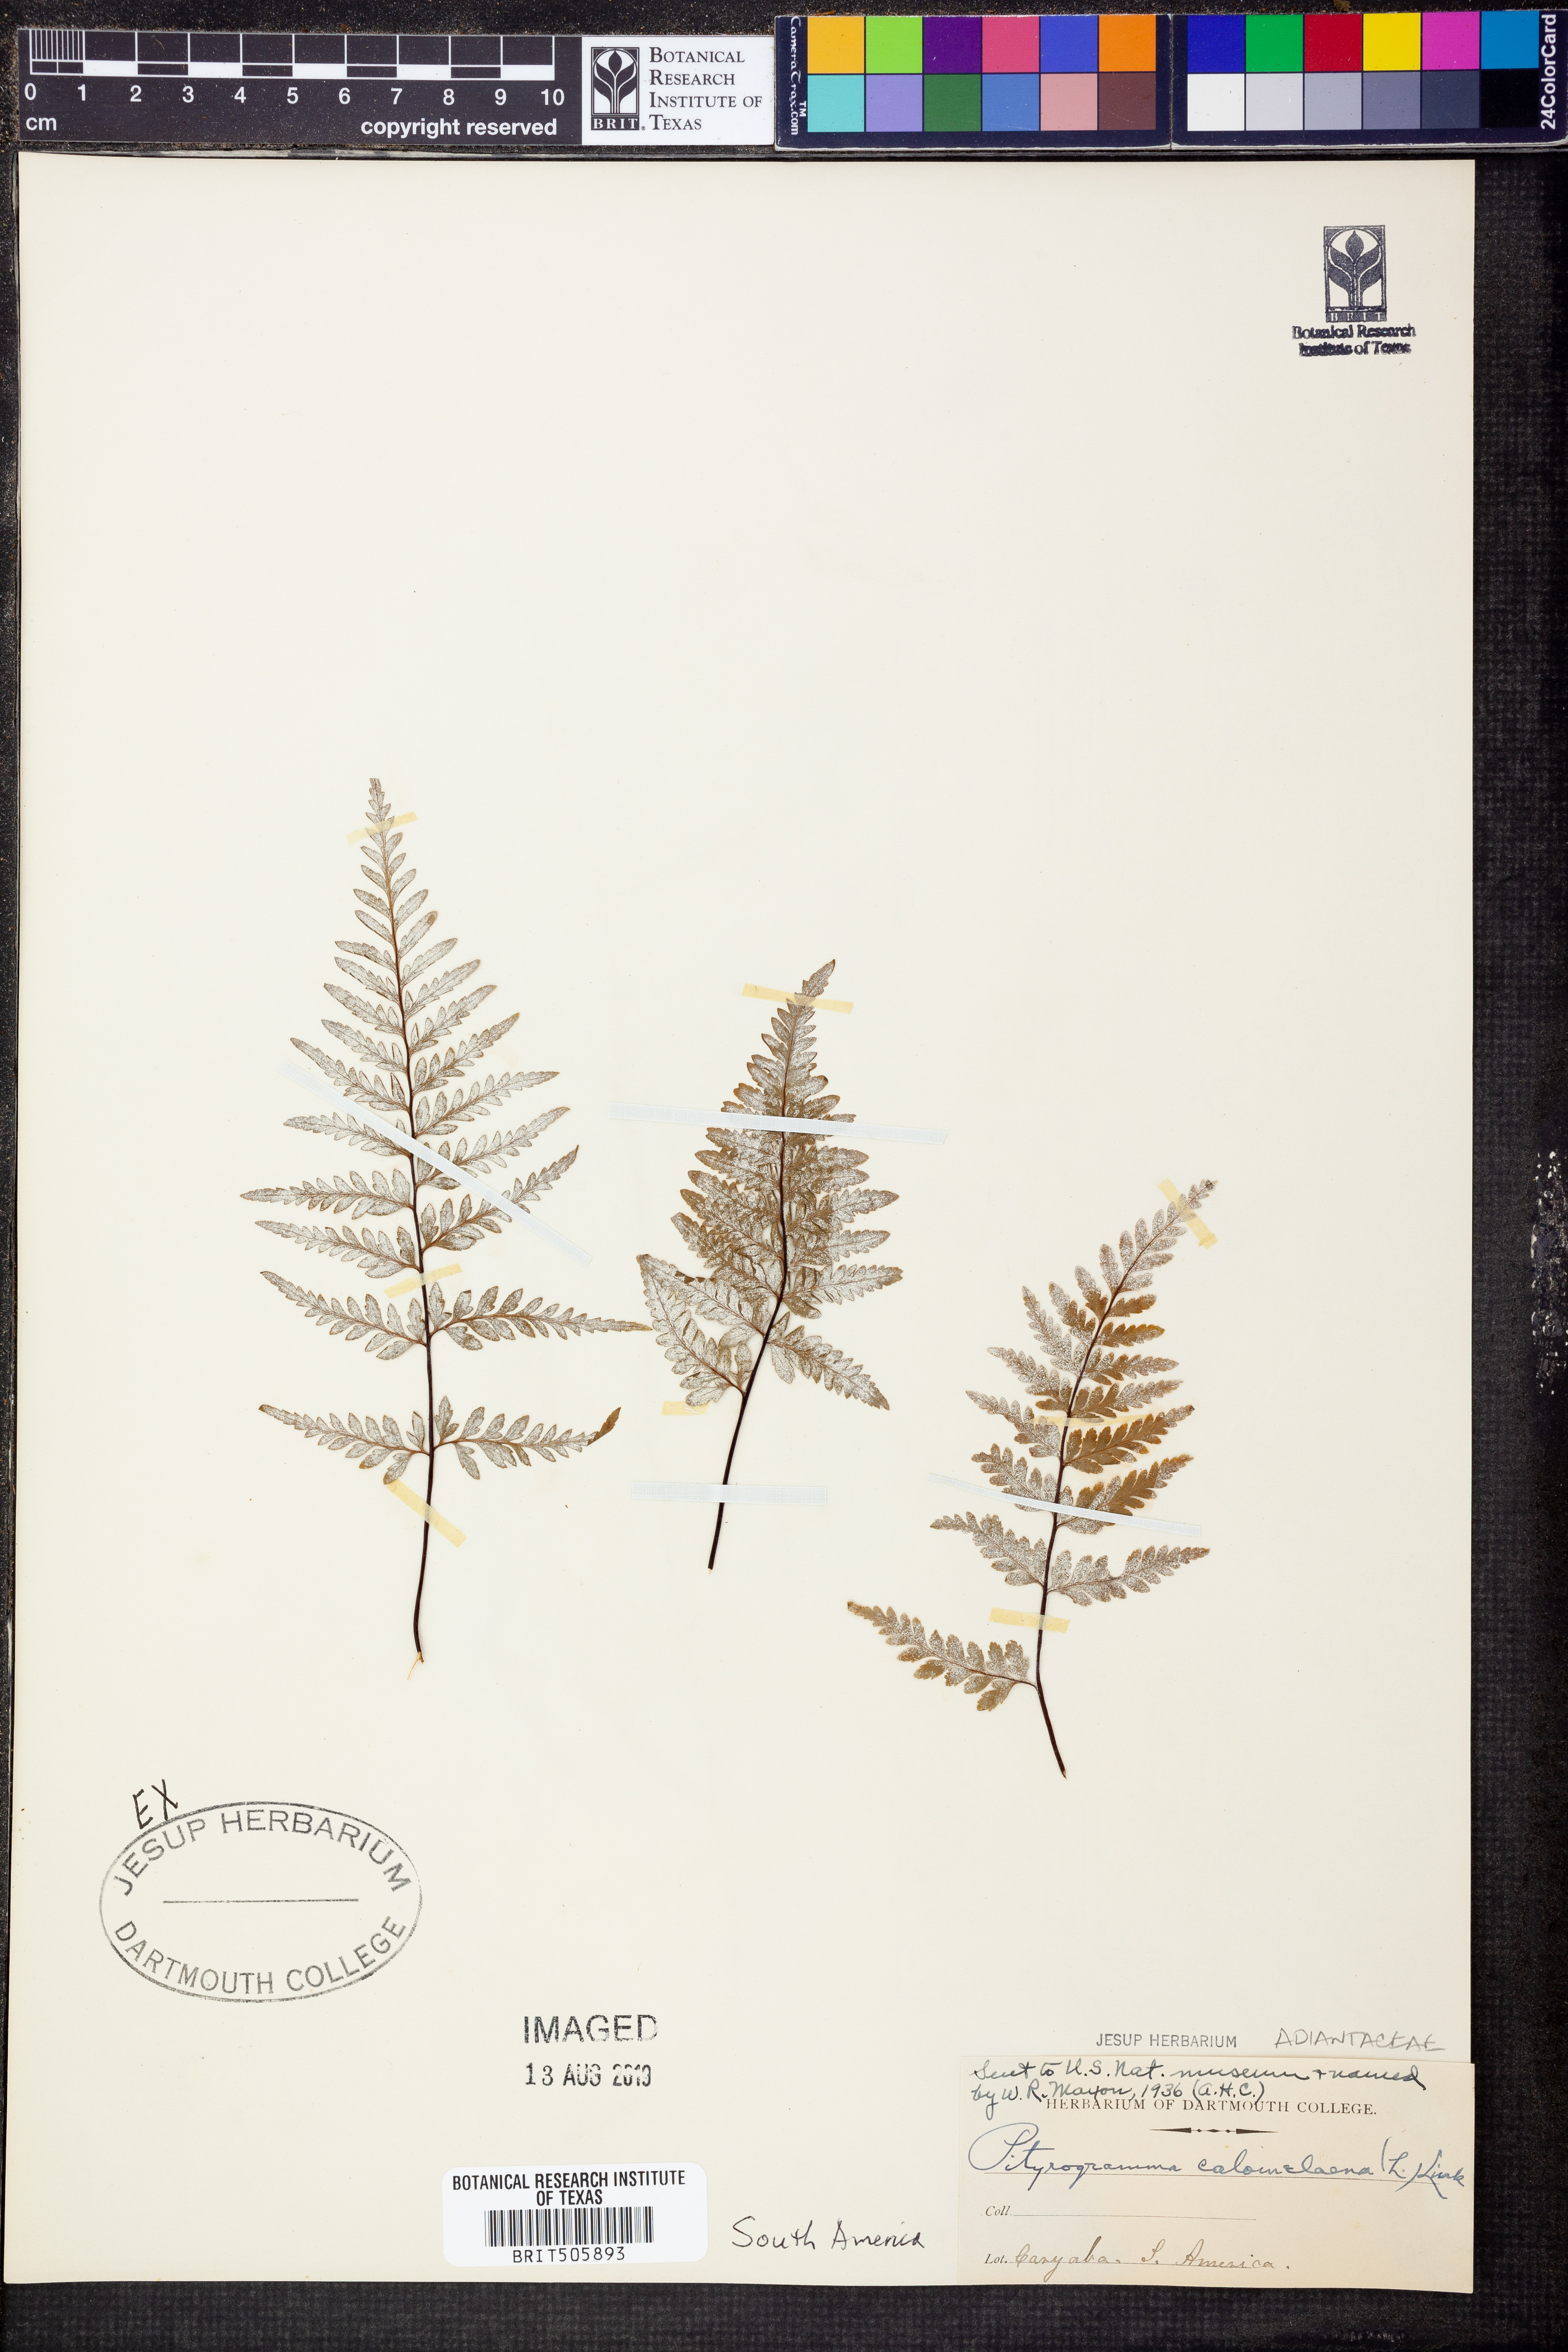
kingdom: Plantae
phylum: Tracheophyta
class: Polypodiopsida
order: Polypodiales
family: Pteridaceae
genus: Pityrogramma
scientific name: Pityrogramma calomelanos
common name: Dixie silverback fern
